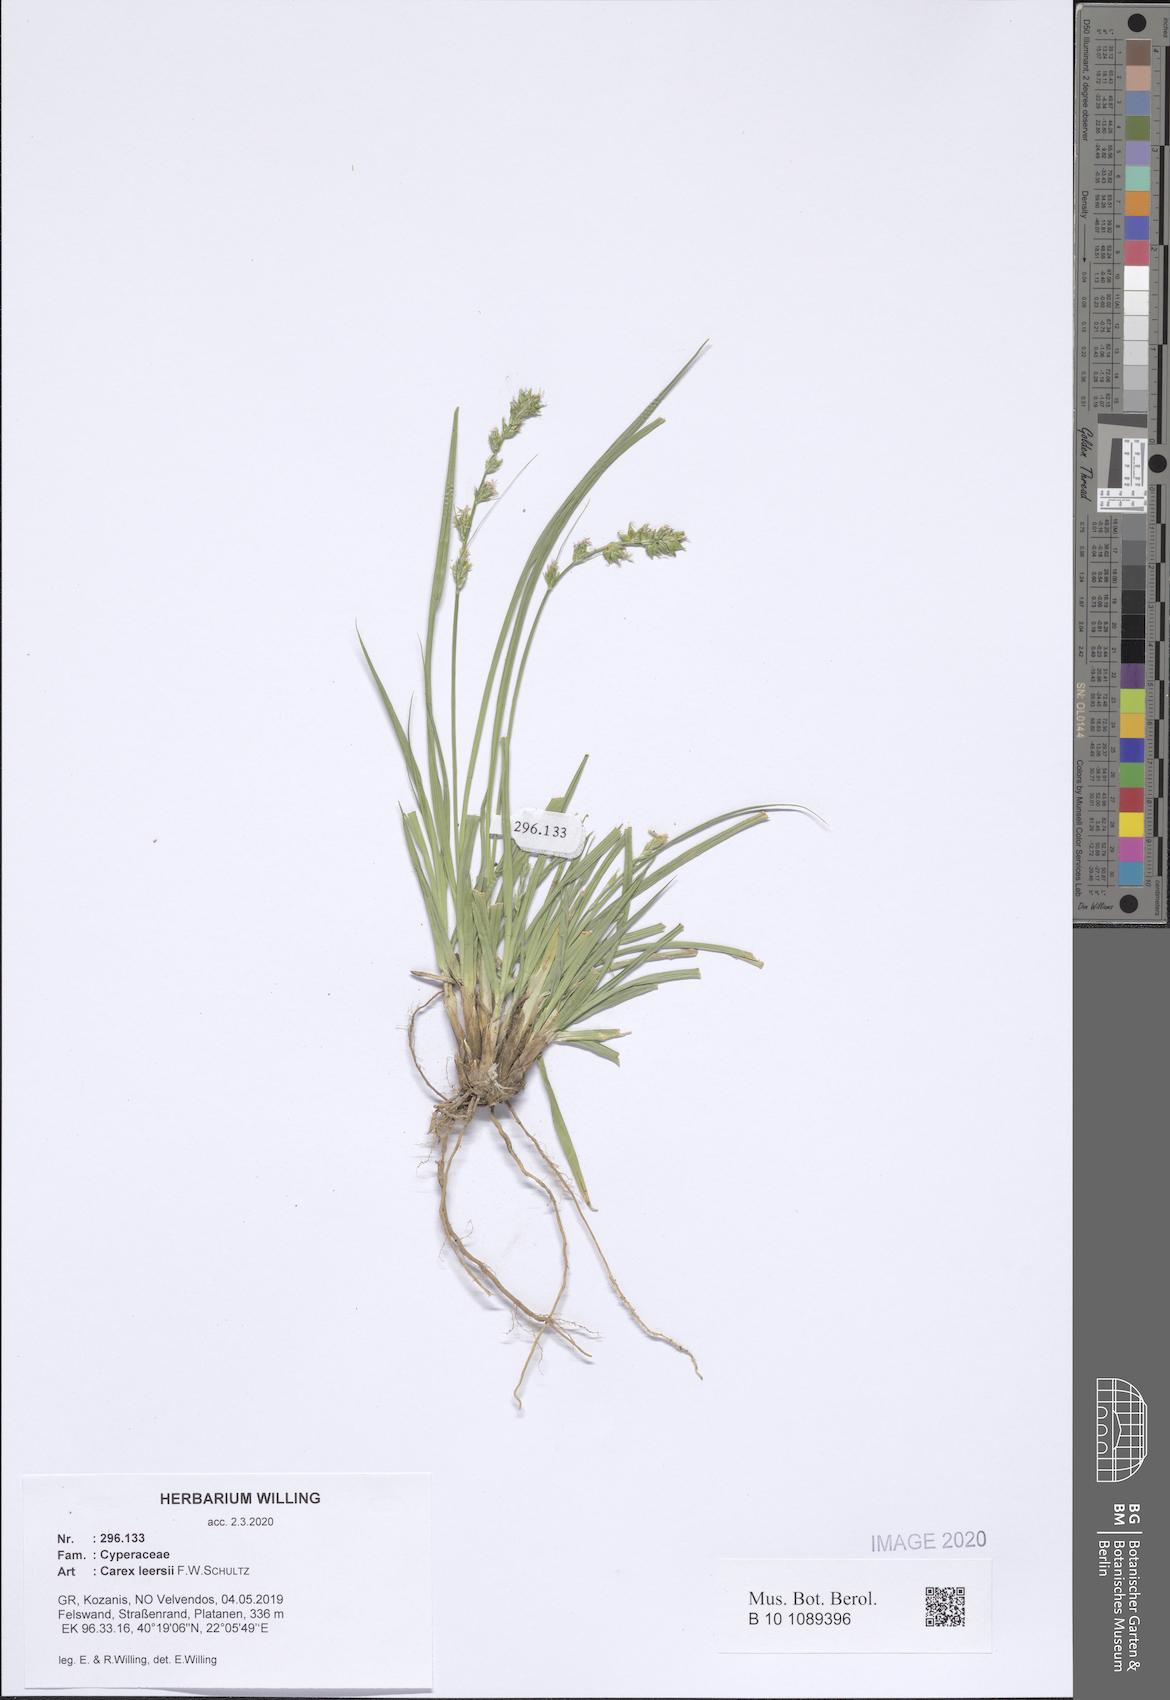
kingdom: Plantae
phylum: Tracheophyta
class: Liliopsida
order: Poales
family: Cyperaceae
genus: Carex
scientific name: Carex leersii
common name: Leers' sedge
